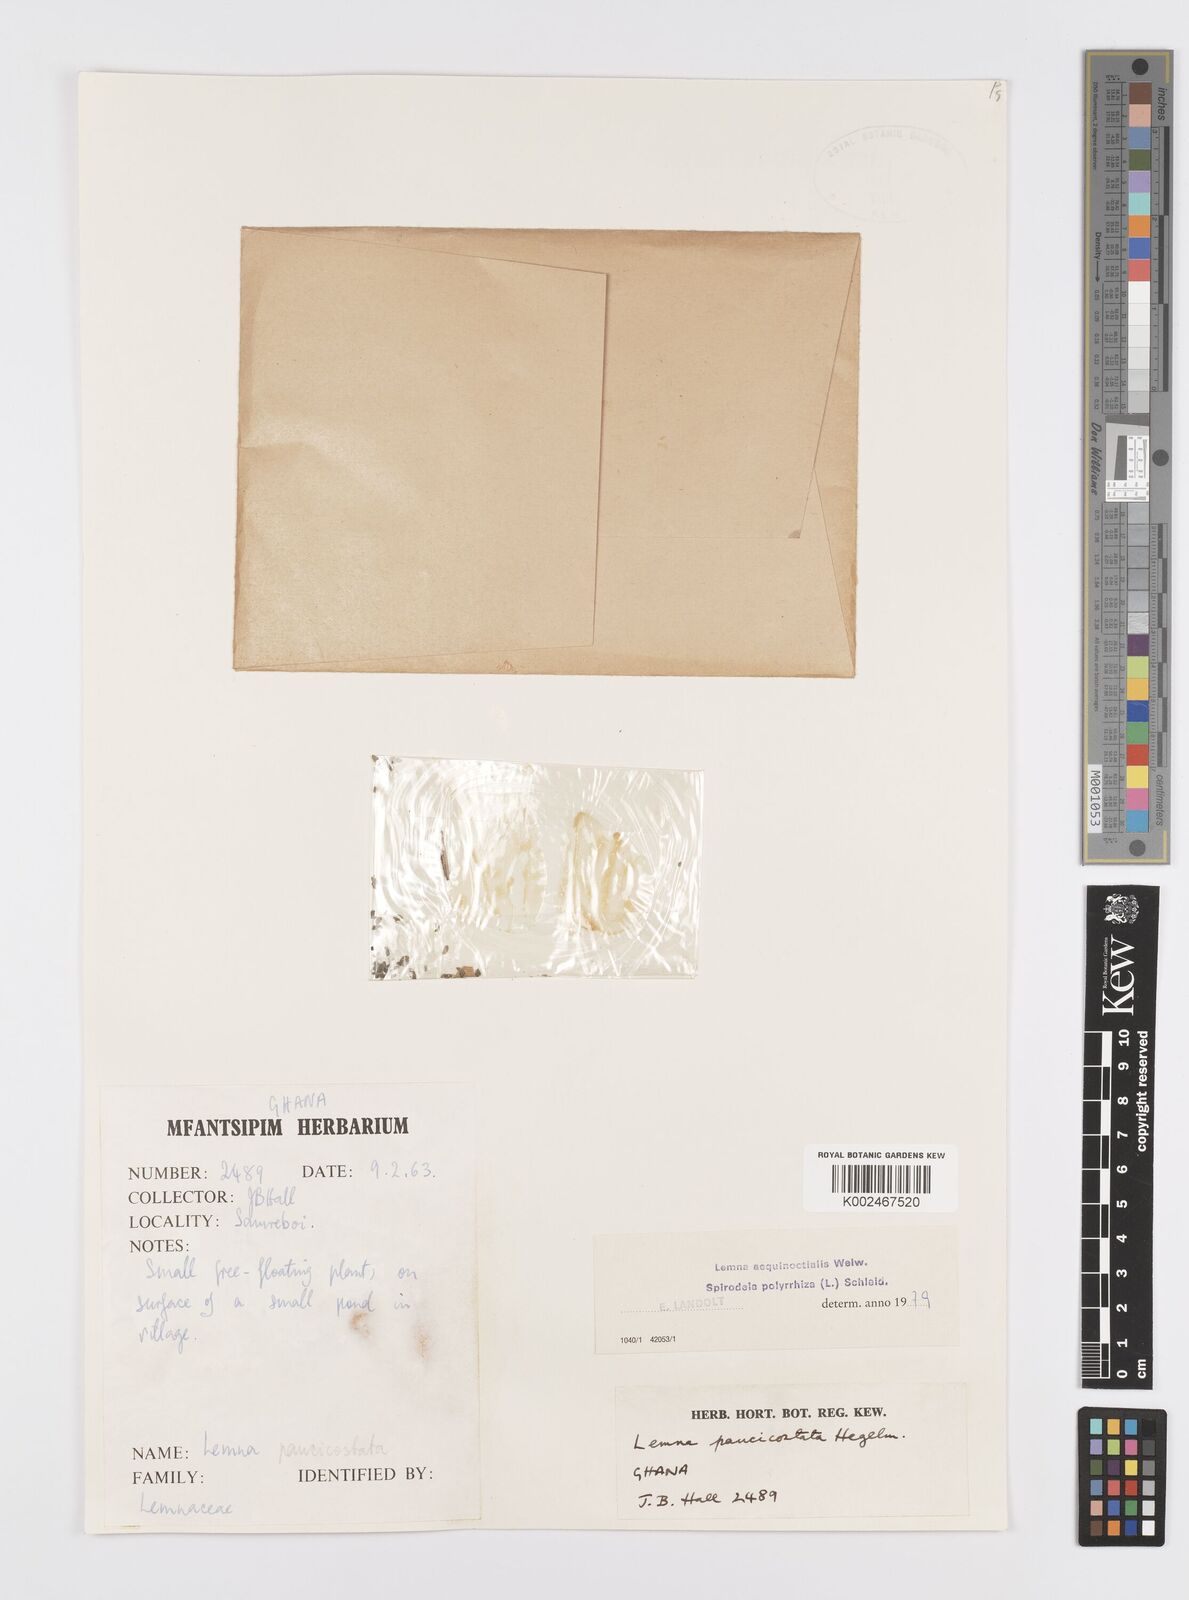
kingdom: Plantae
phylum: Tracheophyta
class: Liliopsida
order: Alismatales
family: Araceae
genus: Spirodela
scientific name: Spirodela polyrhiza
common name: Great duckweed
